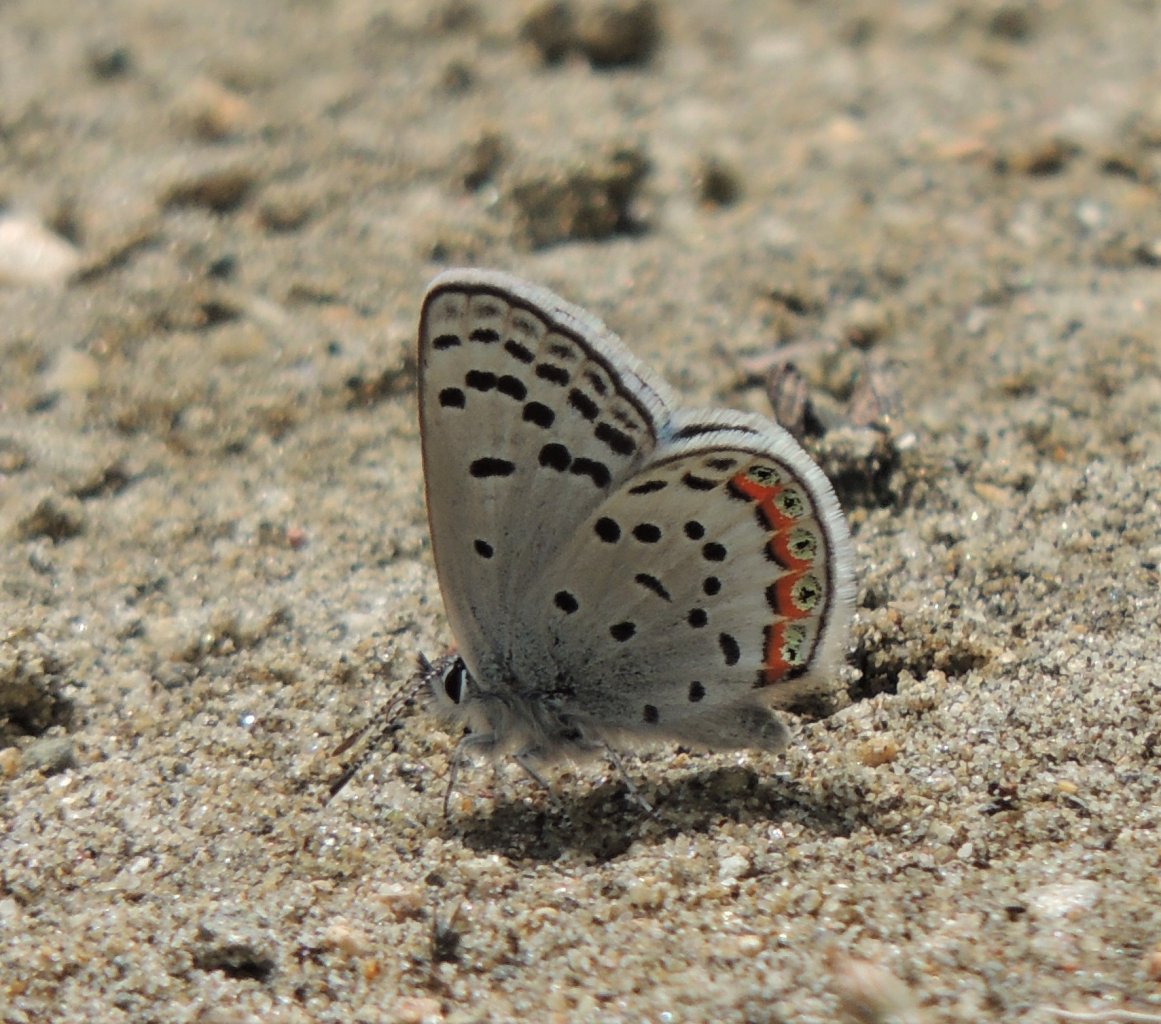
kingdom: Animalia
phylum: Arthropoda
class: Insecta
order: Lepidoptera
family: Lycaenidae
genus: Plebejus
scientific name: Plebejus lupini
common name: Lupine Blue
